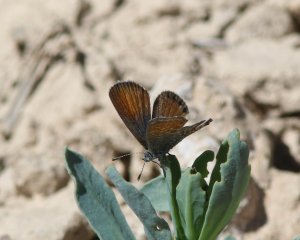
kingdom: Animalia
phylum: Arthropoda
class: Insecta
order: Lepidoptera
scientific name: Lepidoptera
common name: Butterflies
